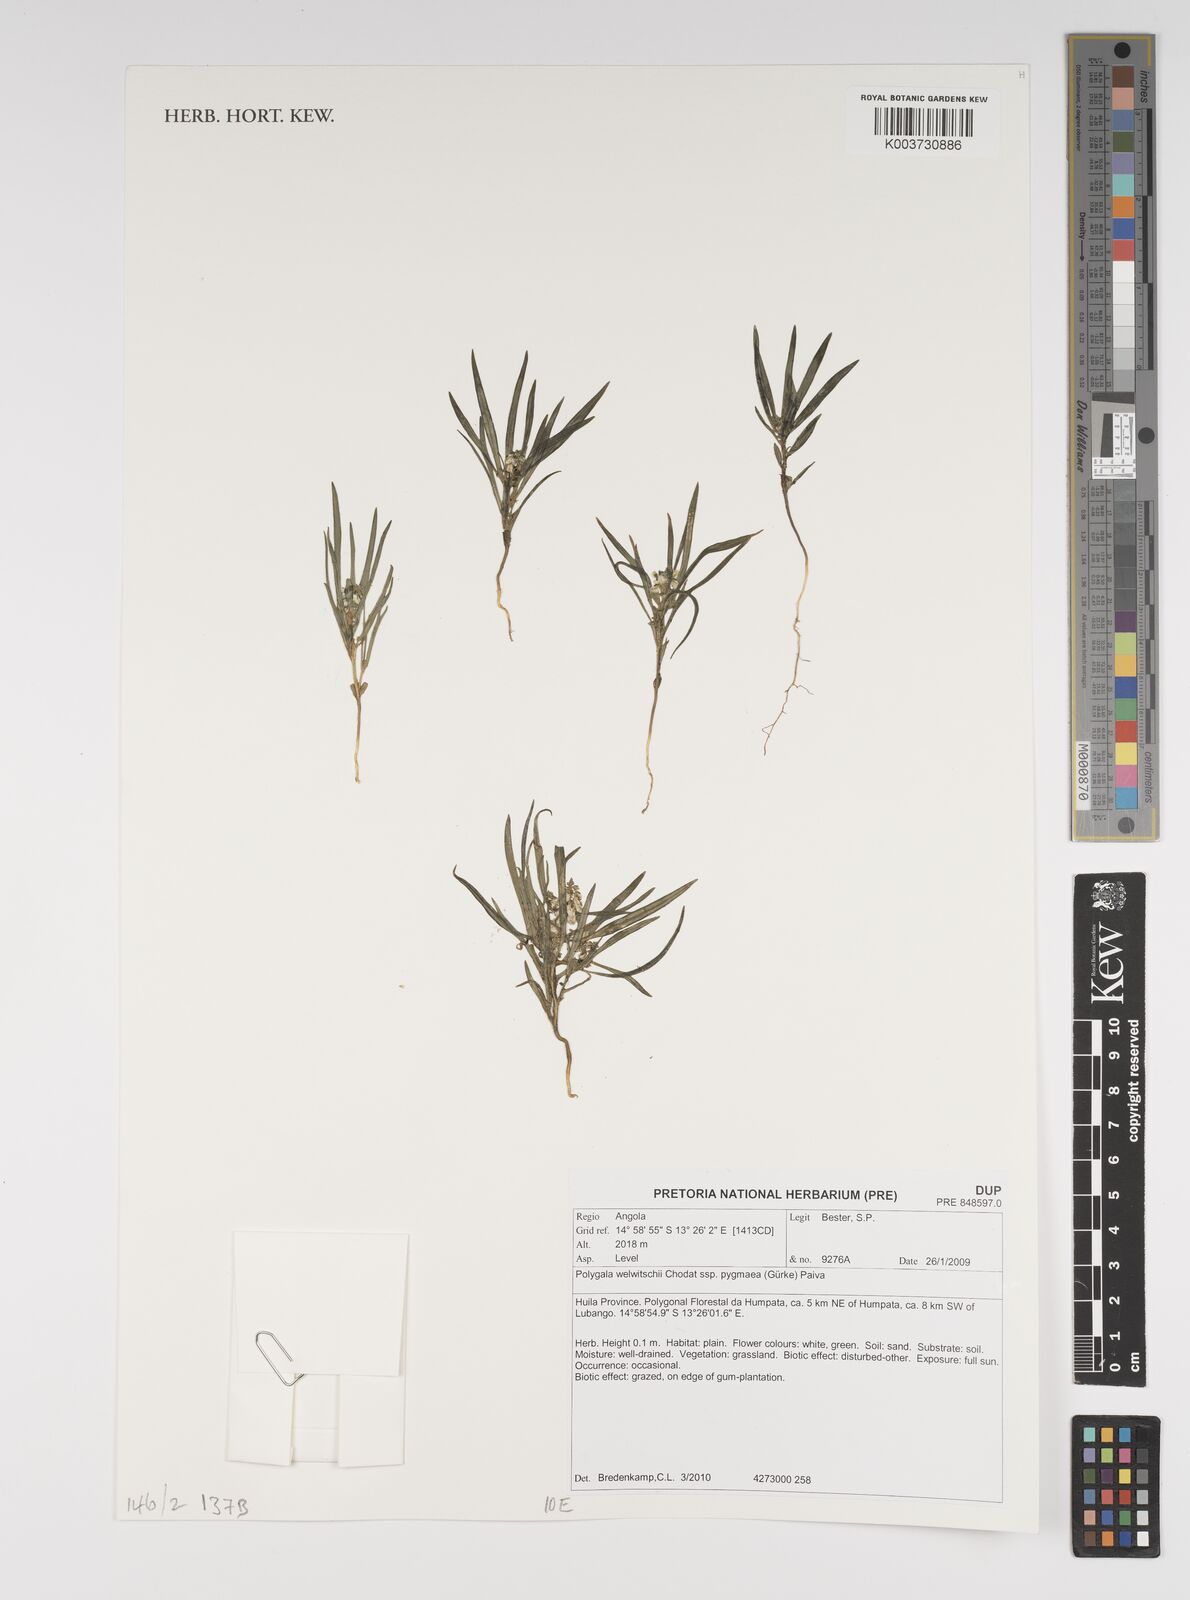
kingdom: Plantae
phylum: Tracheophyta
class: Magnoliopsida
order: Fabales
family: Polygalaceae
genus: Polygala
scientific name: Polygala welwitschii
